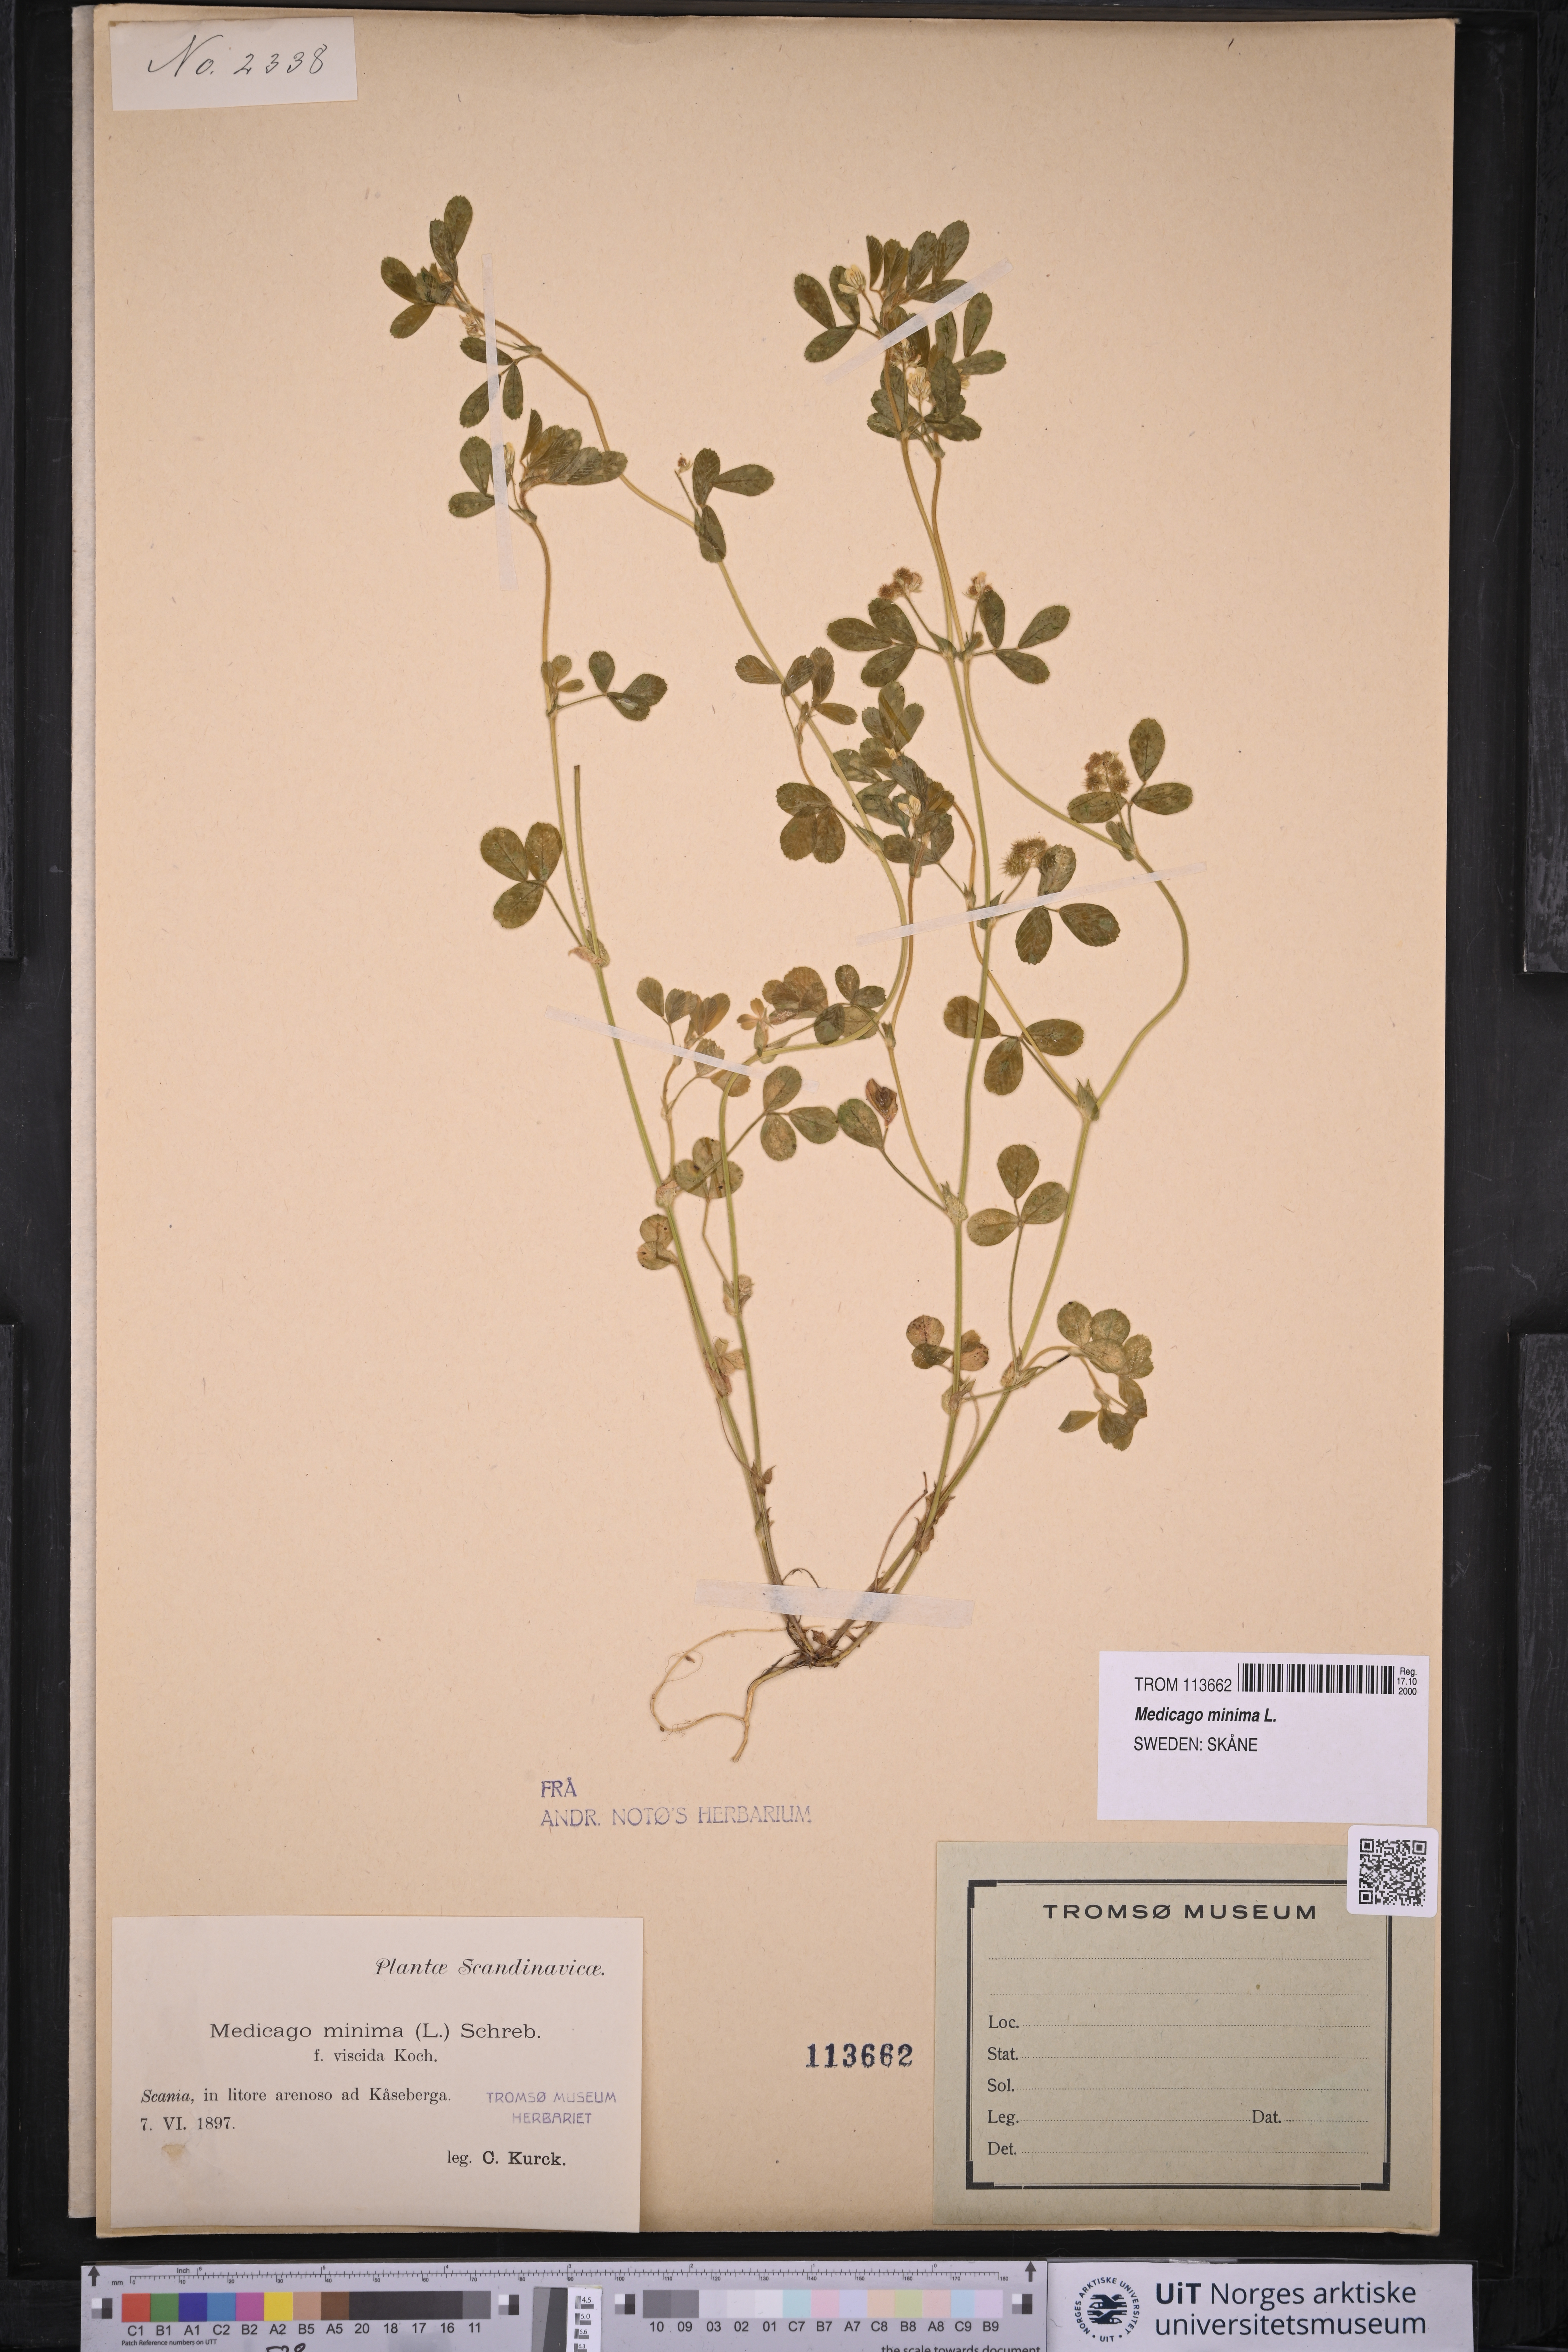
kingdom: Plantae
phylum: Tracheophyta
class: Magnoliopsida
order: Fabales
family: Fabaceae
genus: Medicago
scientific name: Medicago minima
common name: Little bur-clover
